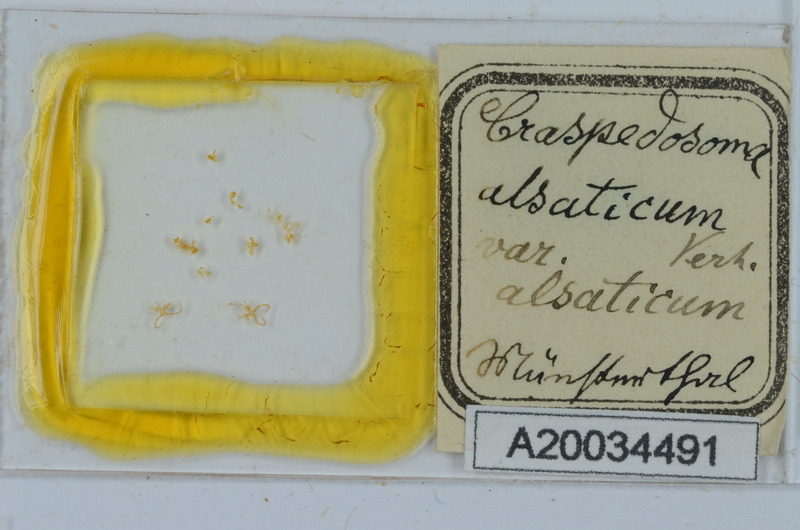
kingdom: Animalia
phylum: Arthropoda
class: Diplopoda
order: Chordeumatida
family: Craspedosomatidae
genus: Craspedosoma
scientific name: Craspedosoma rawlinsii
